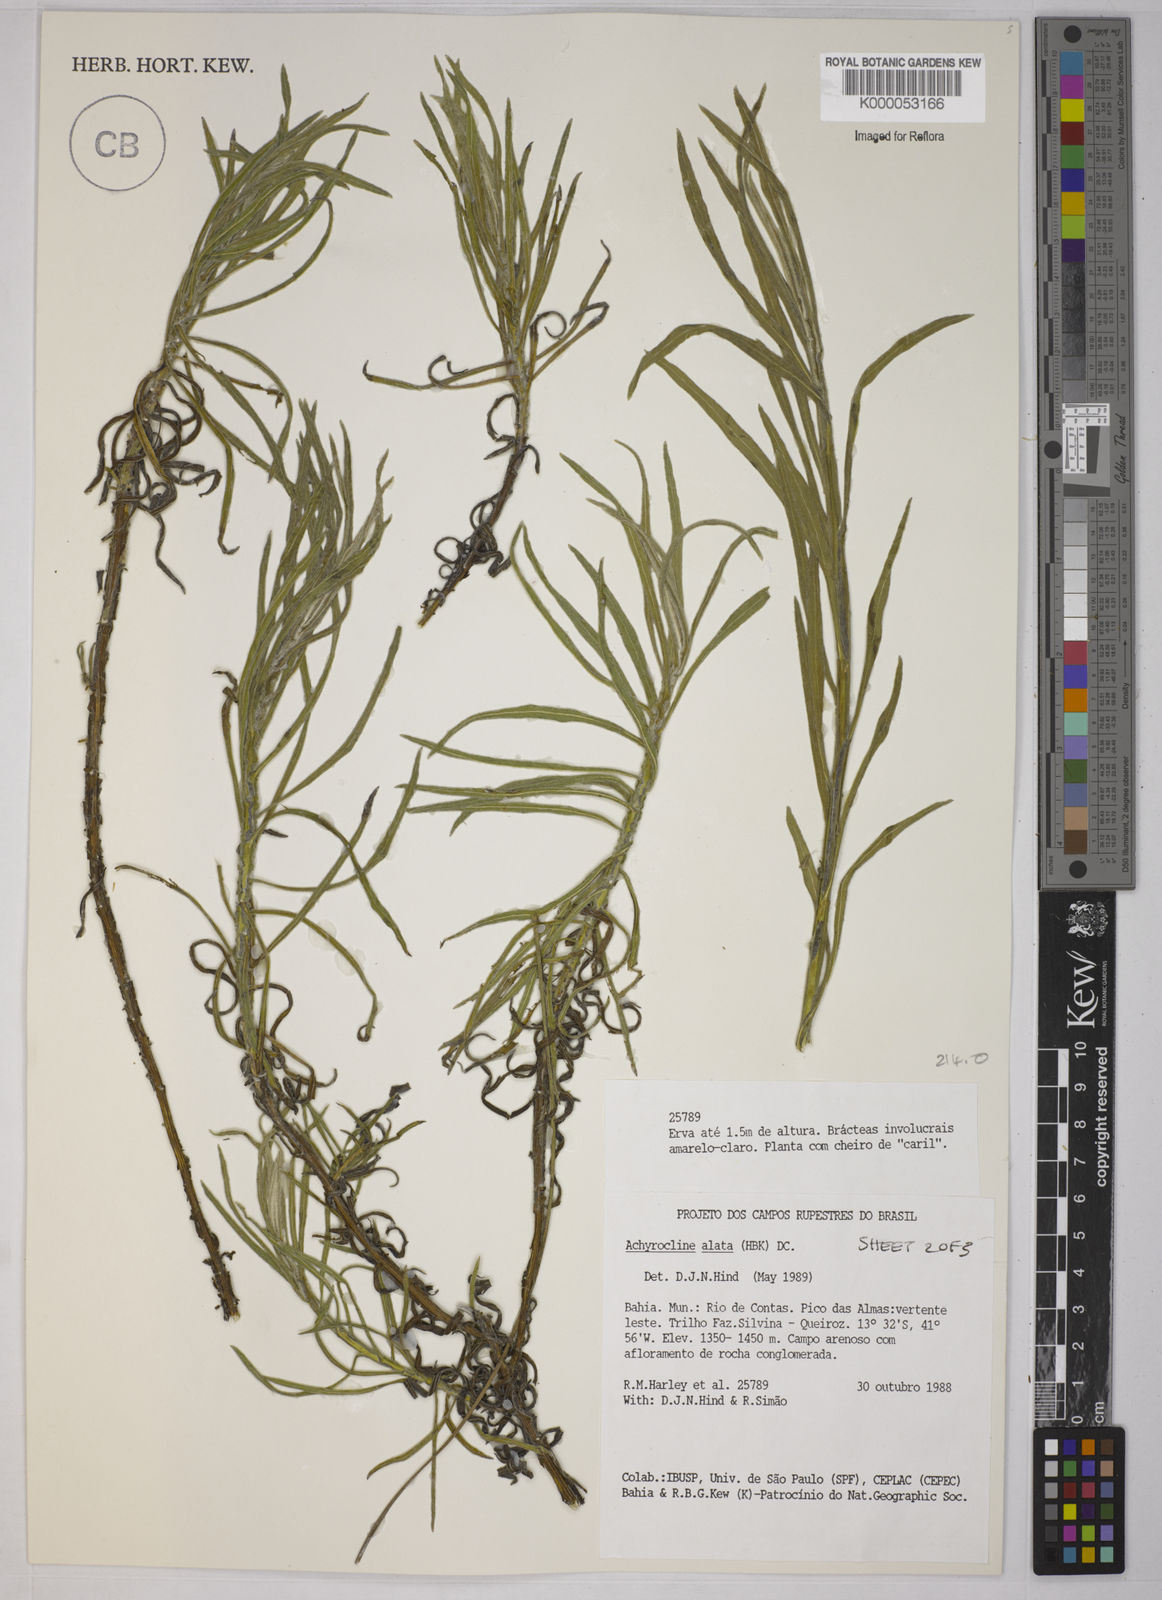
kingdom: Plantae
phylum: Tracheophyta
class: Magnoliopsida
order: Asterales
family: Asteraceae
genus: Achyrocline
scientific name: Achyrocline alata
